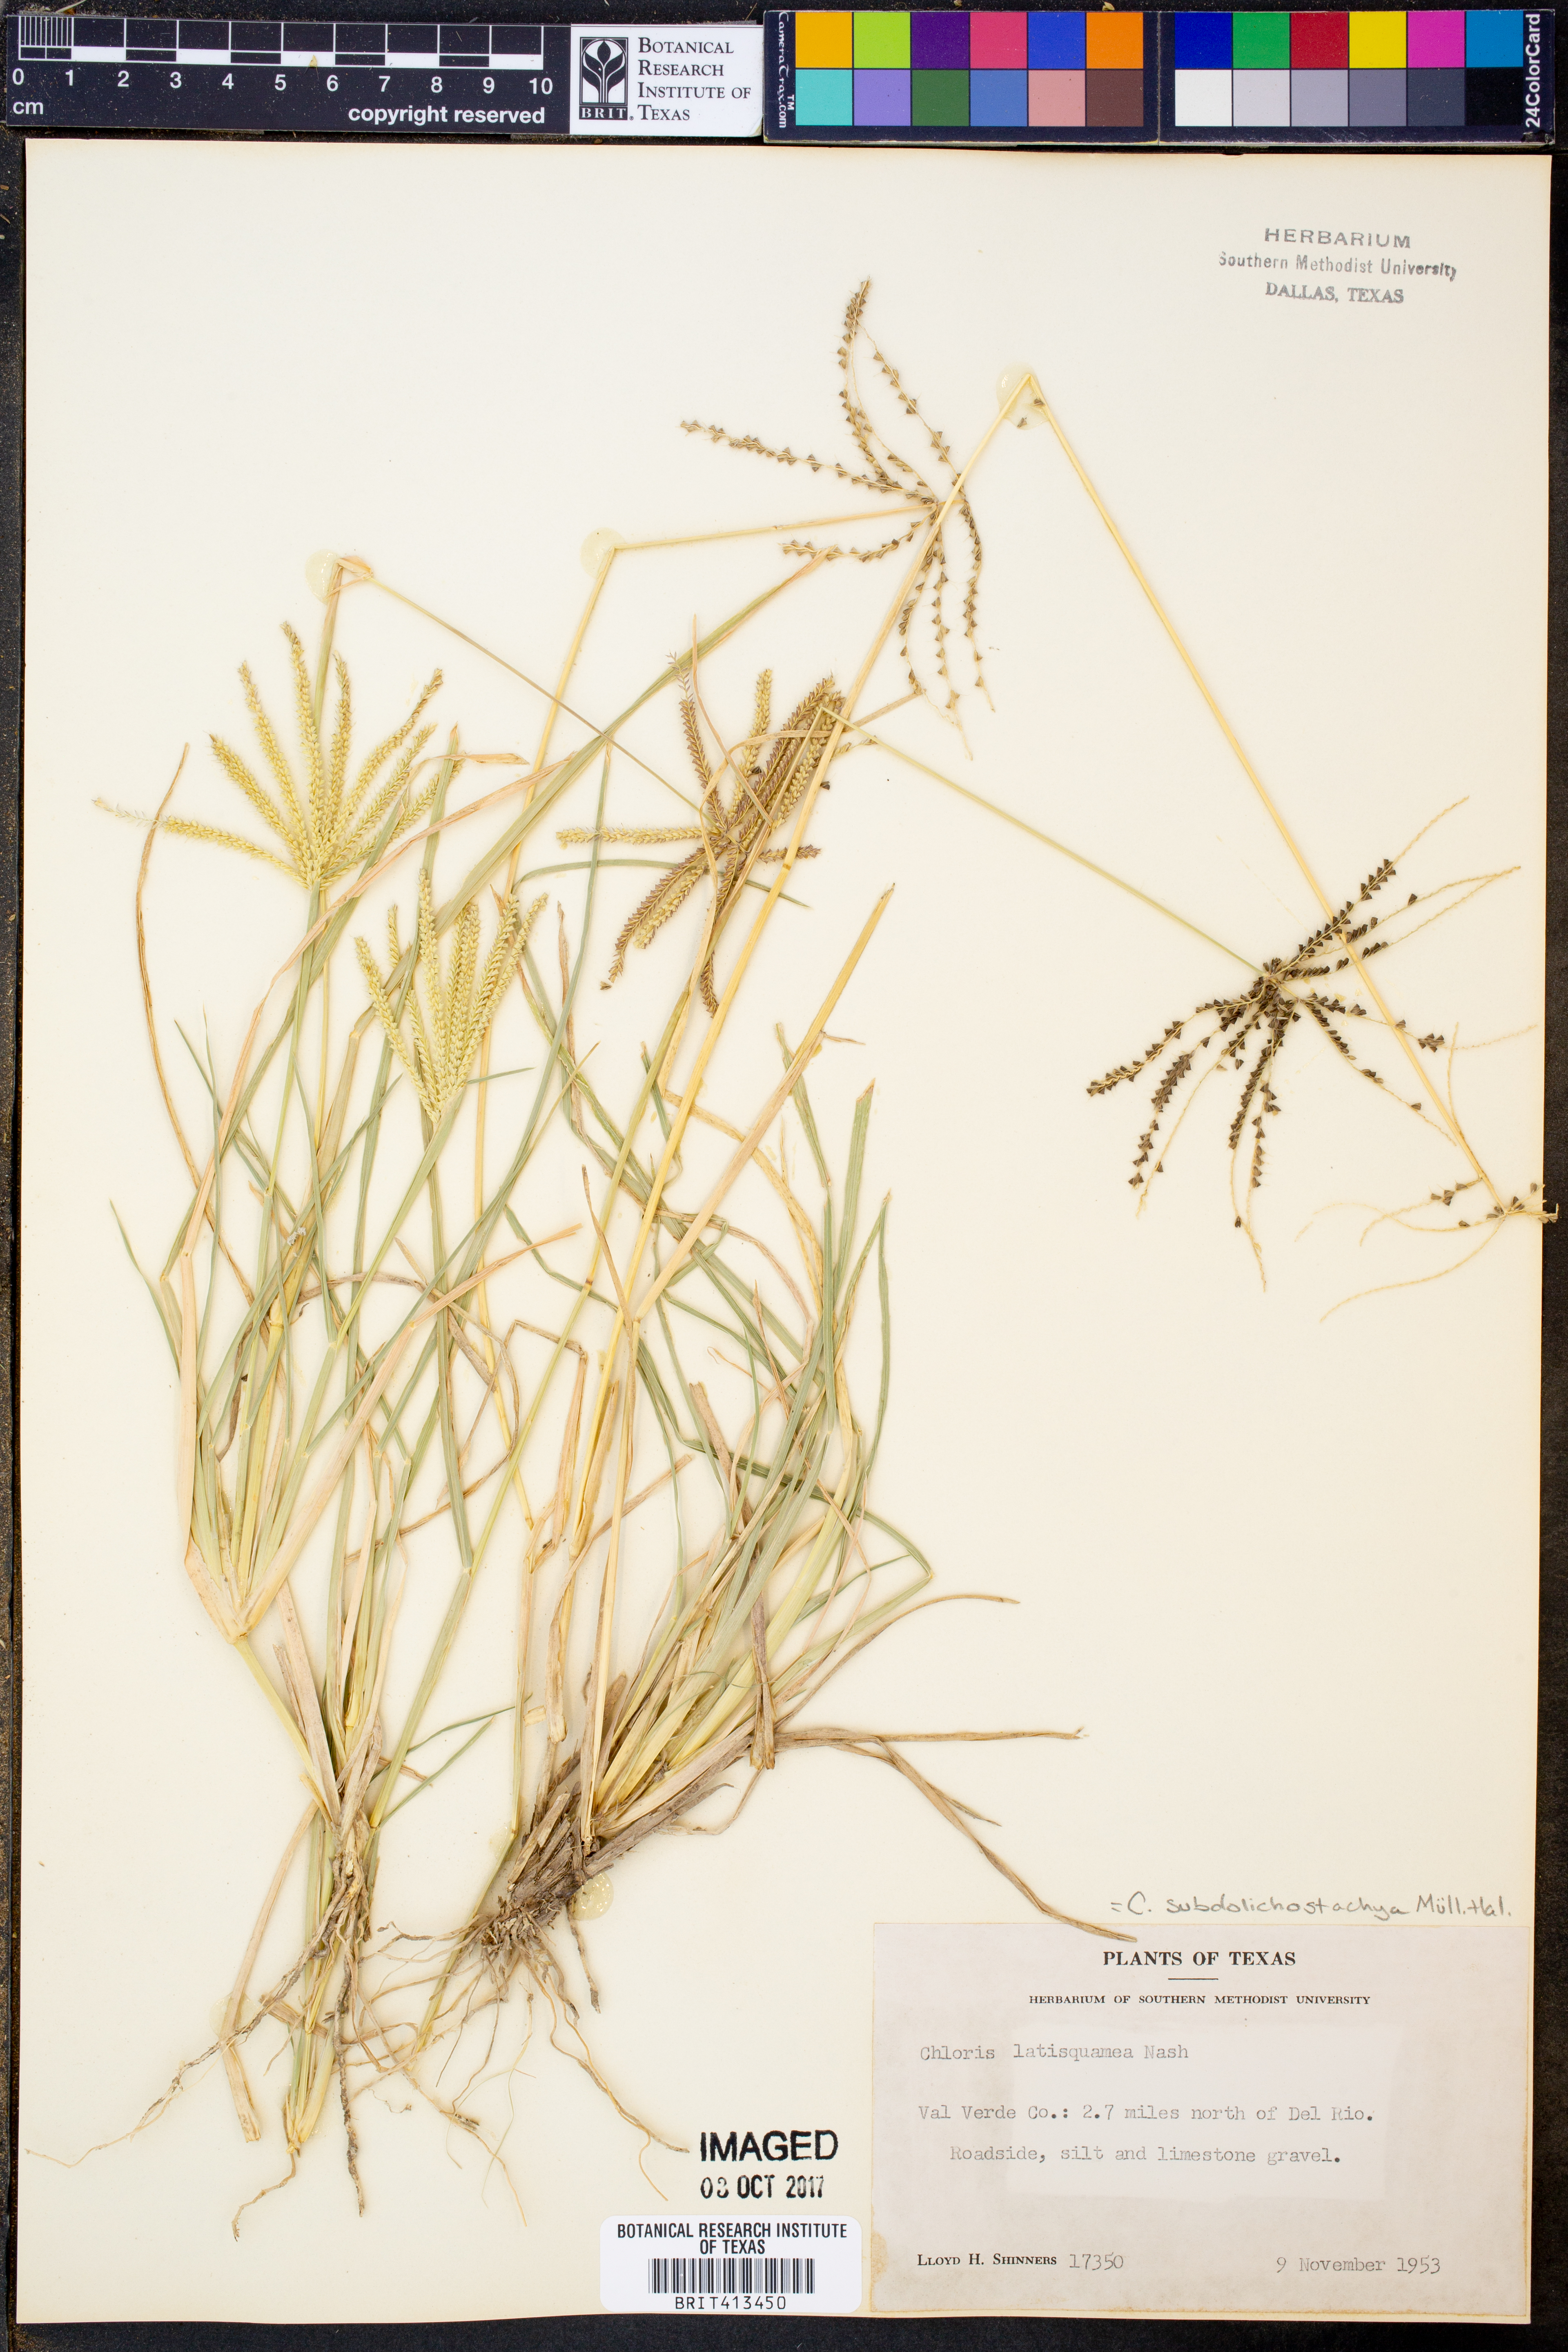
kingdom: Plantae
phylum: Tracheophyta
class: Liliopsida
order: Poales
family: Poaceae
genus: Chloris
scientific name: Chloris subdolichostachya
